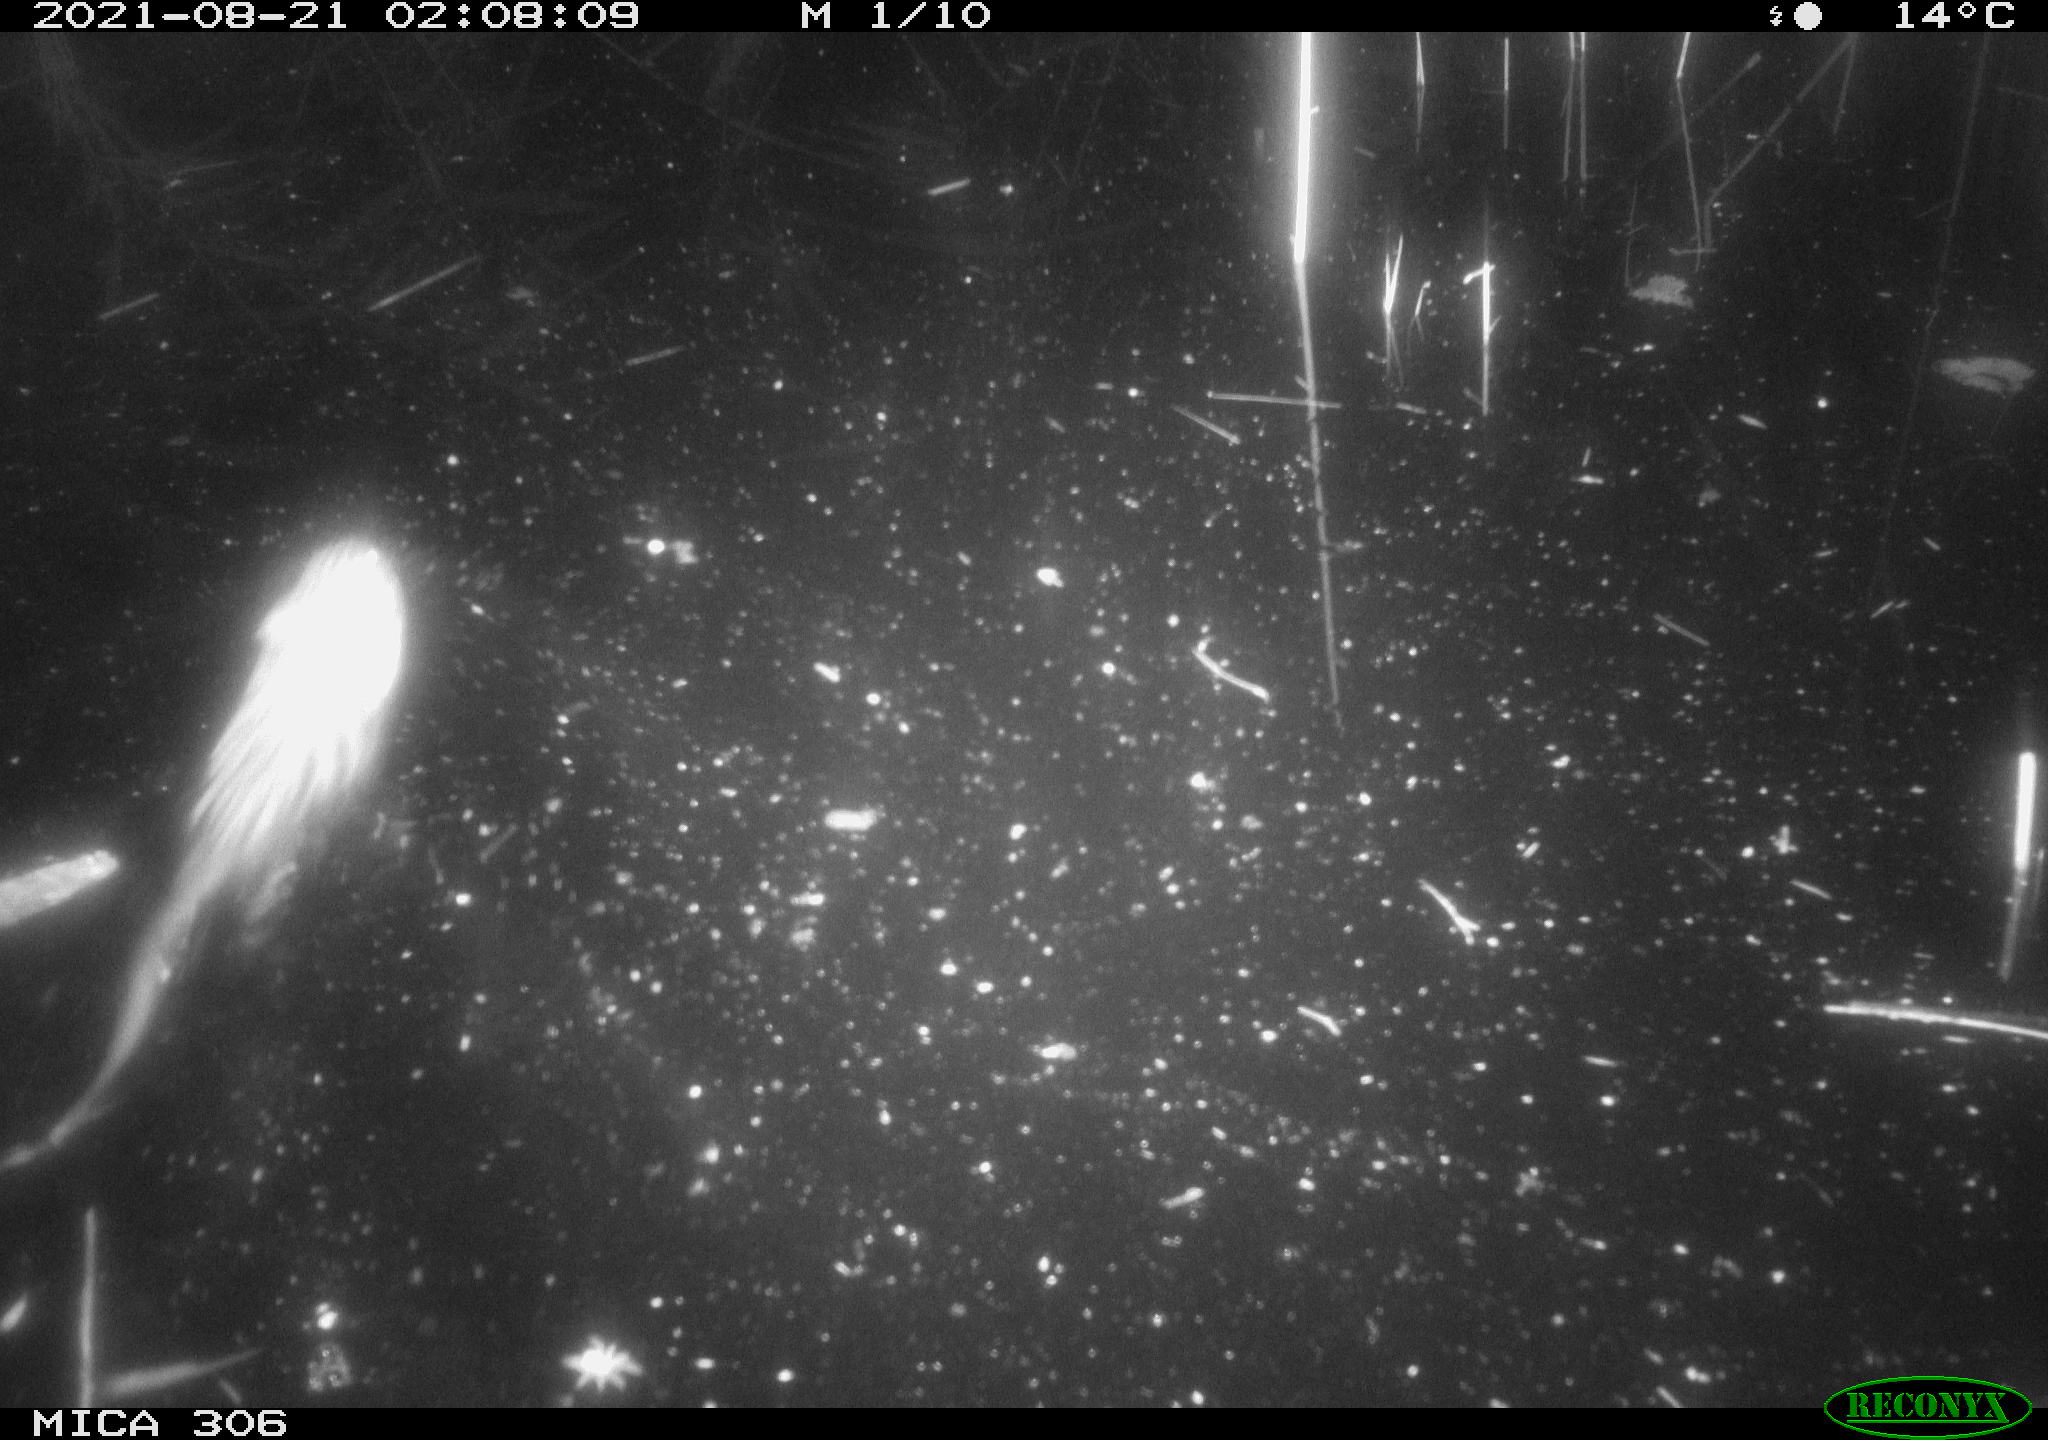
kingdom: Animalia
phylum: Chordata
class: Mammalia
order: Rodentia
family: Cricetidae
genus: Ondatra
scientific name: Ondatra zibethicus
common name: Muskrat
